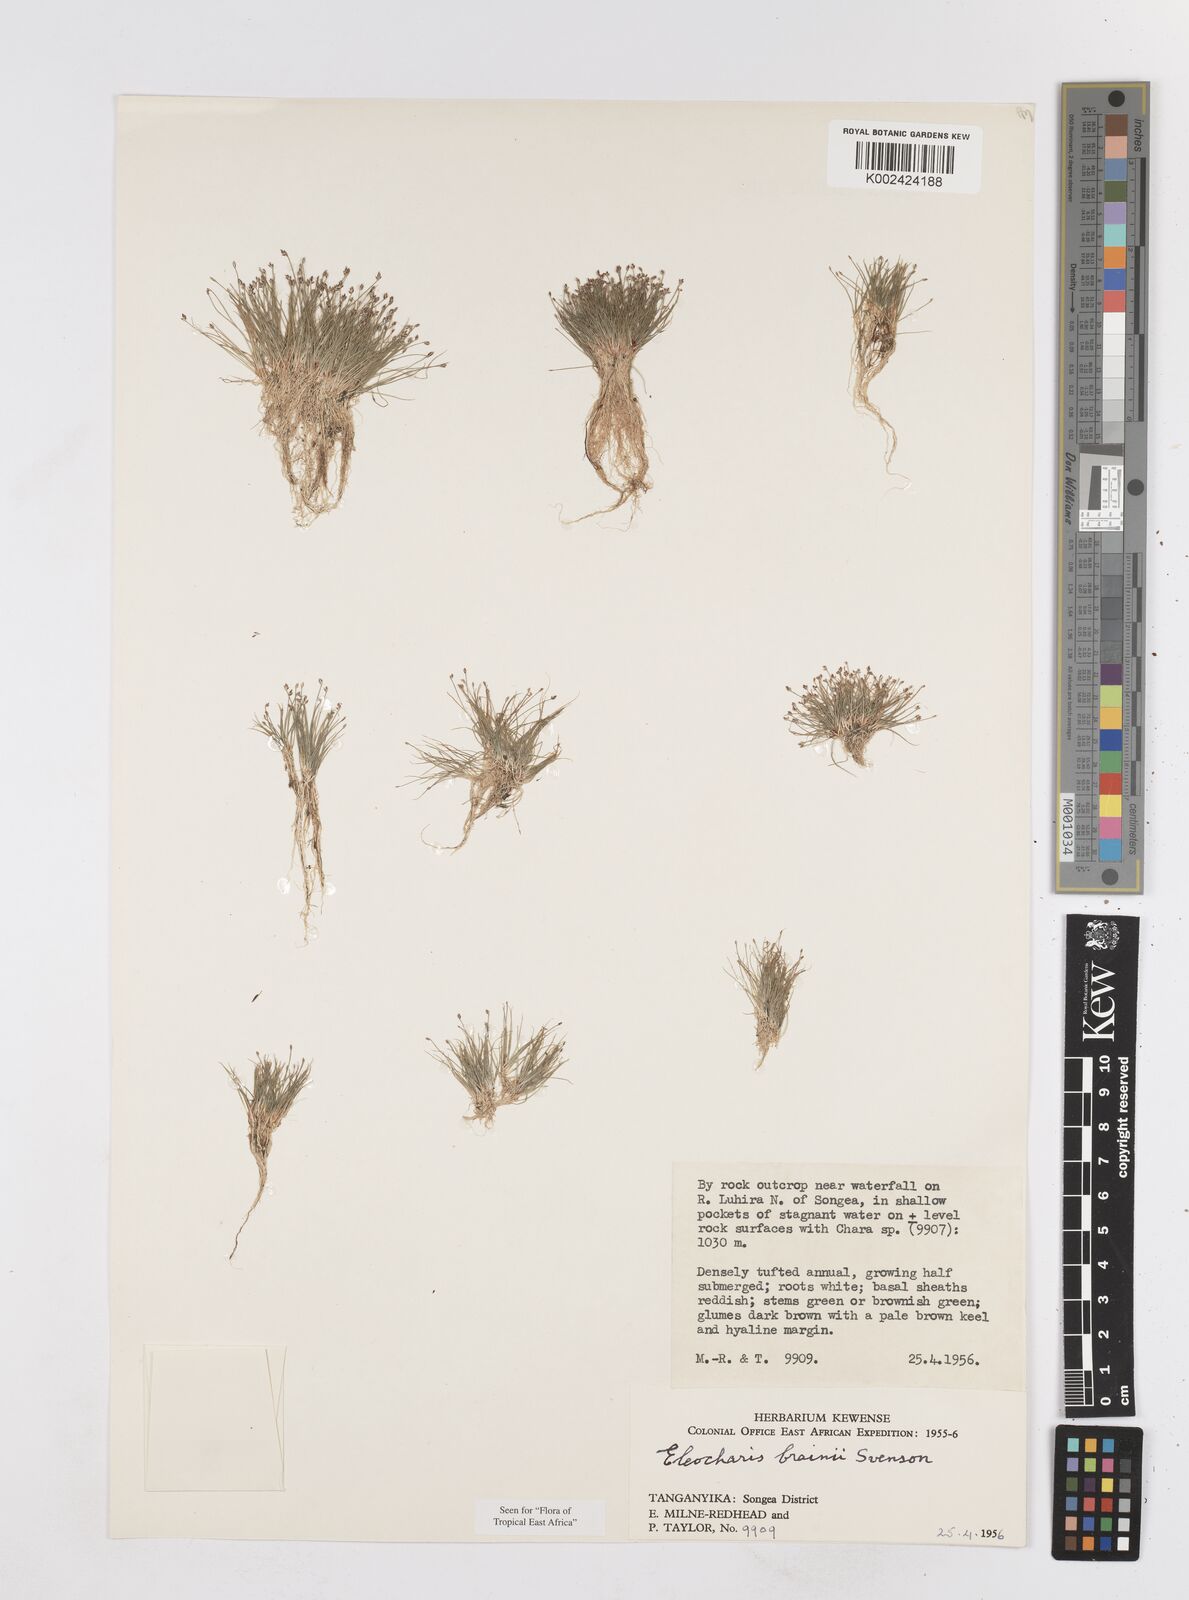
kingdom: Plantae
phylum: Tracheophyta
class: Liliopsida
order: Poales
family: Cyperaceae
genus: Eleocharis
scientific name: Eleocharis brainii
